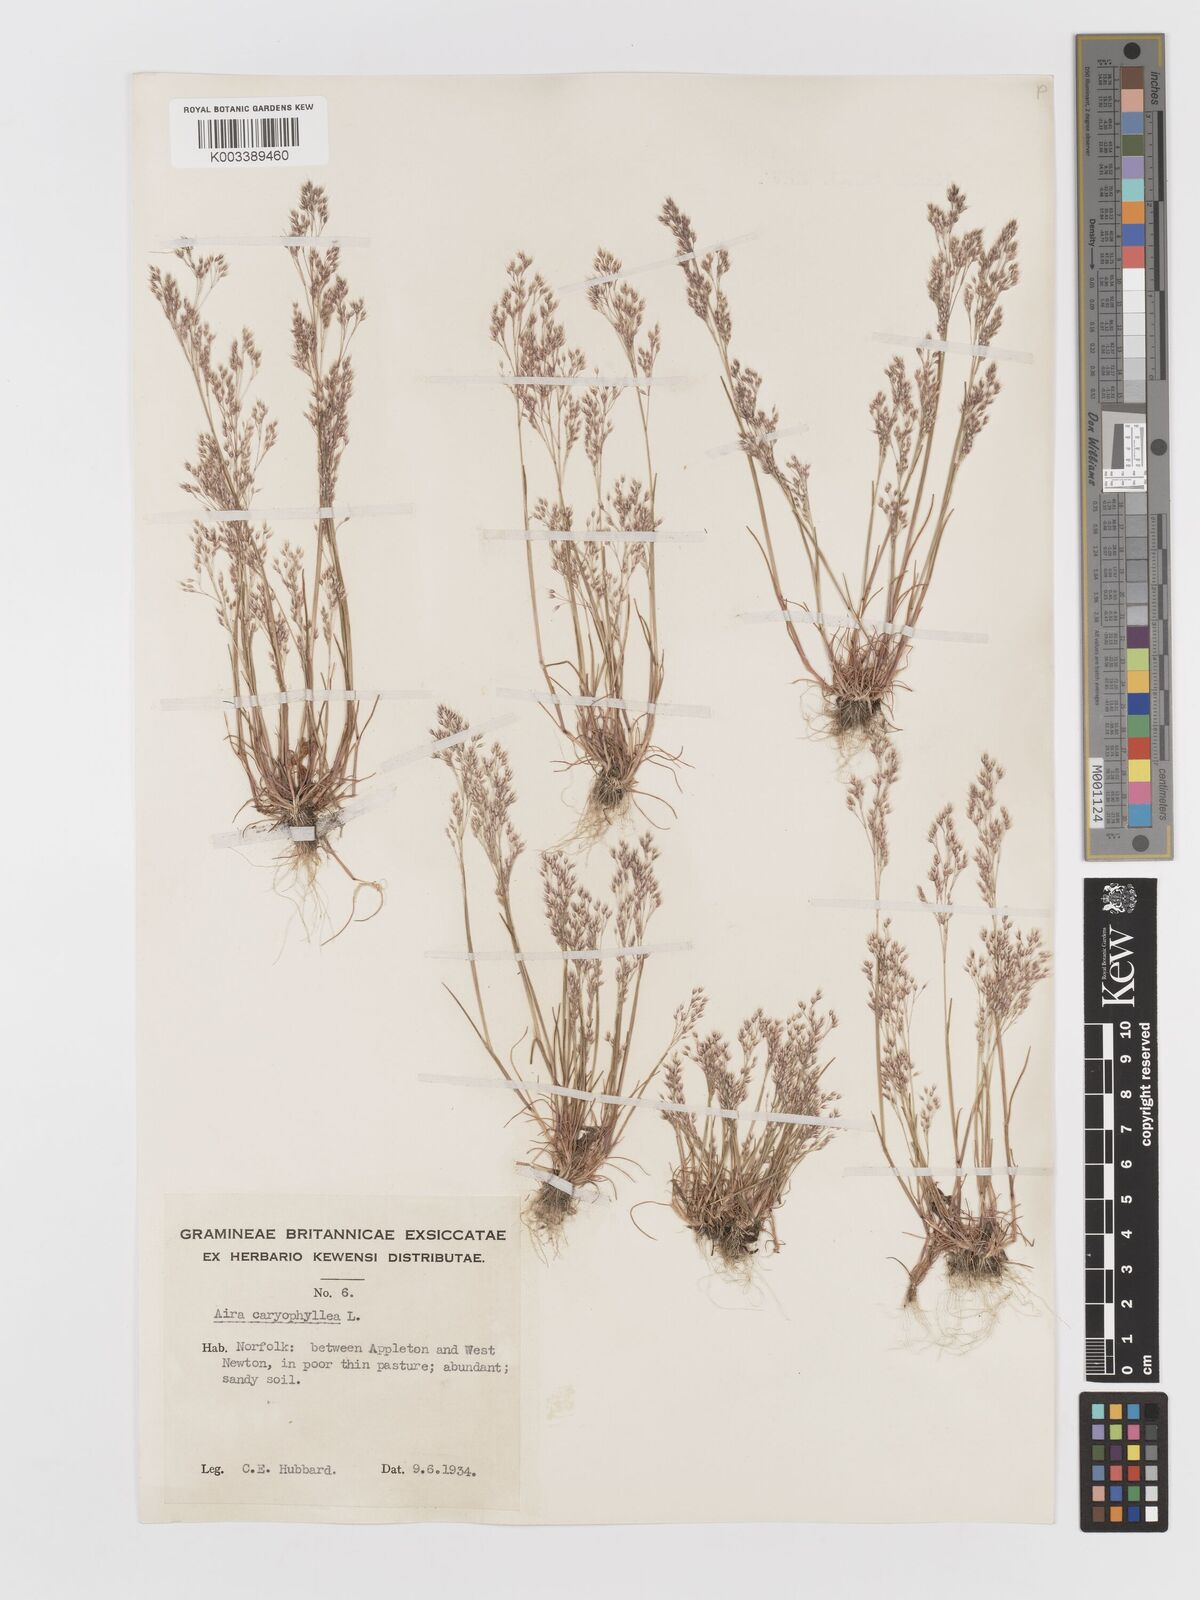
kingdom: Plantae
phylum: Tracheophyta
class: Liliopsida
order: Poales
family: Poaceae
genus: Aira
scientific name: Aira caryophyllea
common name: Silver hairgrass
